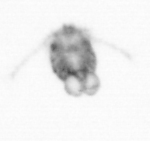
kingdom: Animalia
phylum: Arthropoda
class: Copepoda
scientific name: Copepoda
